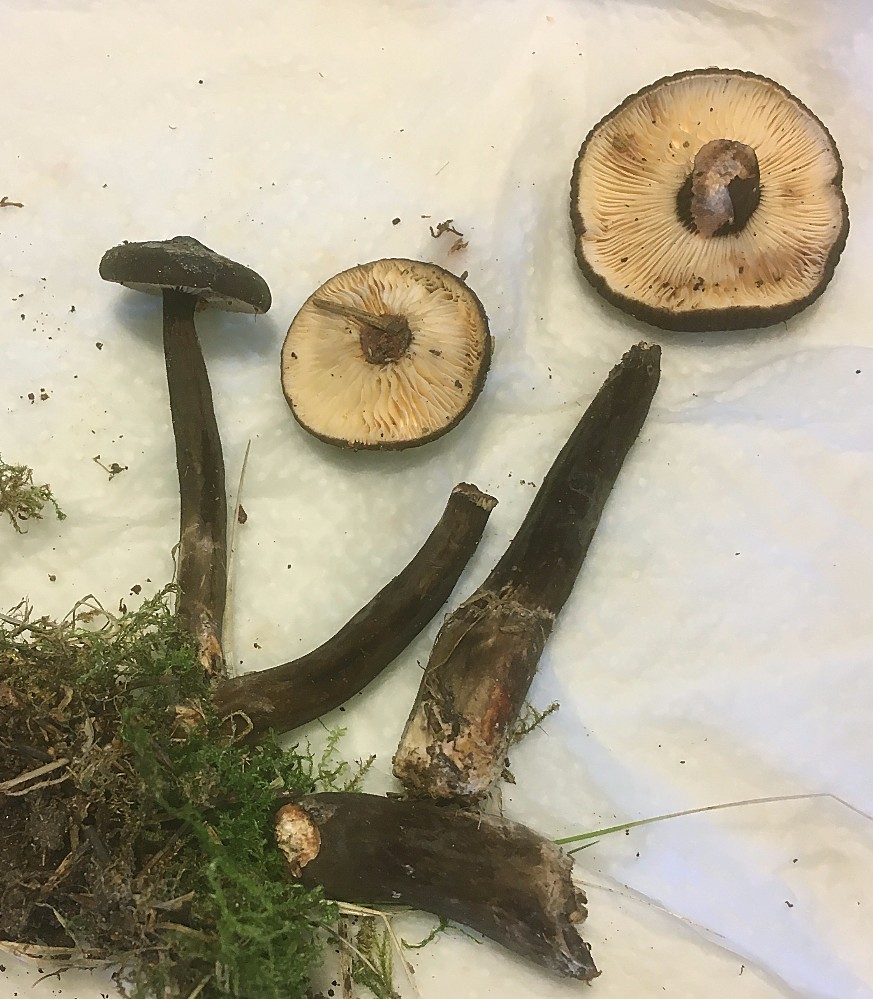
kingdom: Fungi
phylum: Basidiomycota
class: Agaricomycetes
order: Russulales
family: Russulaceae
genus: Lactarius
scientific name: Lactarius lignyotus
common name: fløjls-mælkehat
